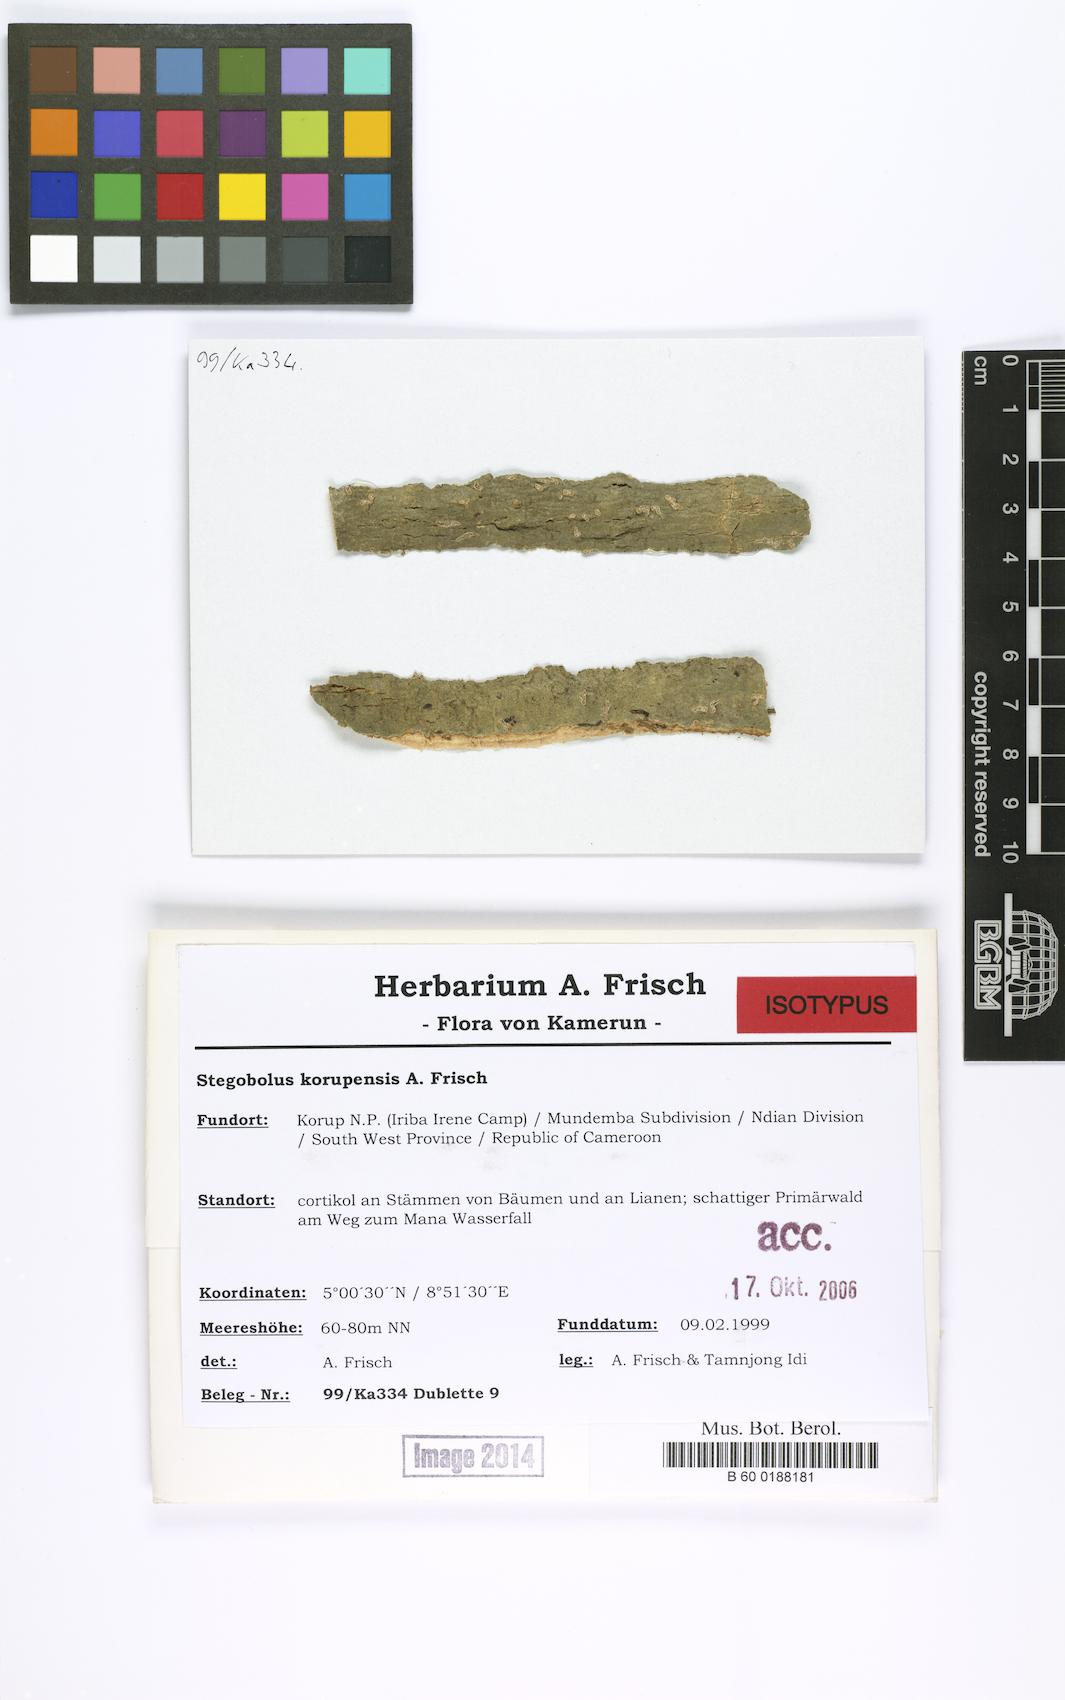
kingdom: Fungi
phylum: Ascomycota
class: Lecanoromycetes
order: Ostropales
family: Graphidaceae
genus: Rhabdodiscus
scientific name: Rhabdodiscus korupensis
